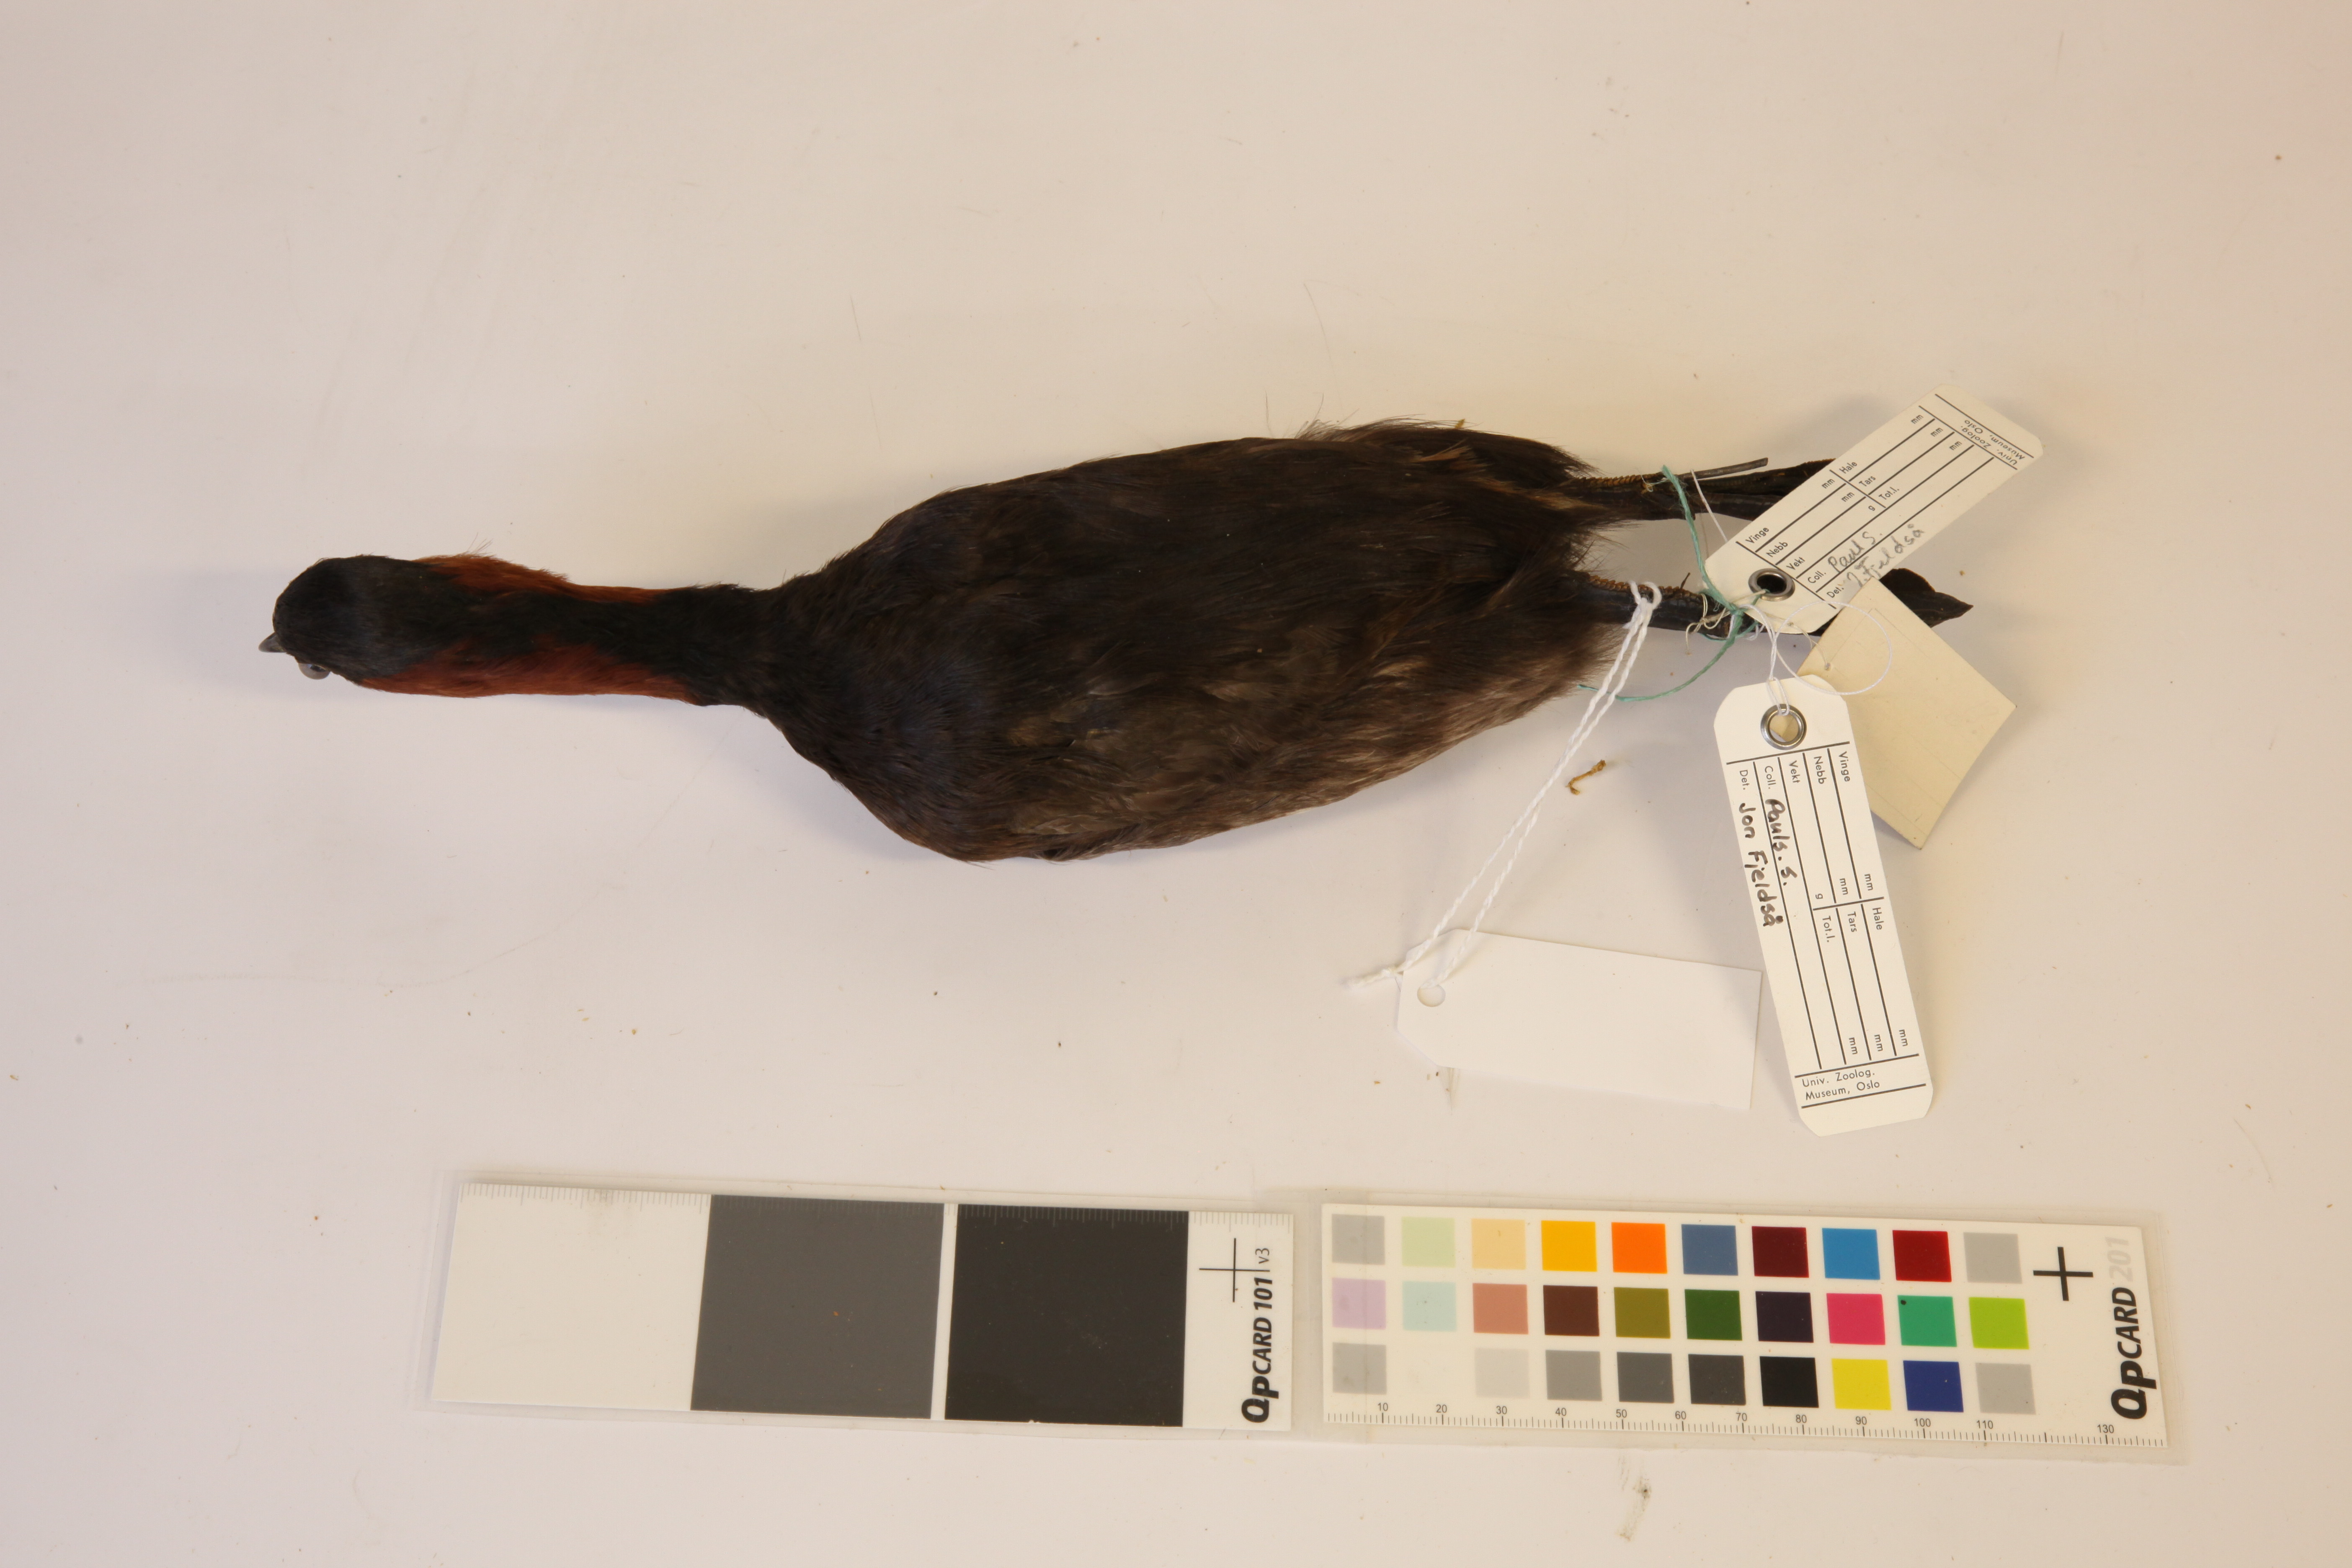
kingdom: Animalia
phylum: Chordata
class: Aves
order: Podicipediformes
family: Podicipedidae
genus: Tachybaptus
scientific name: Tachybaptus tricolor
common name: Tricolored grebe
